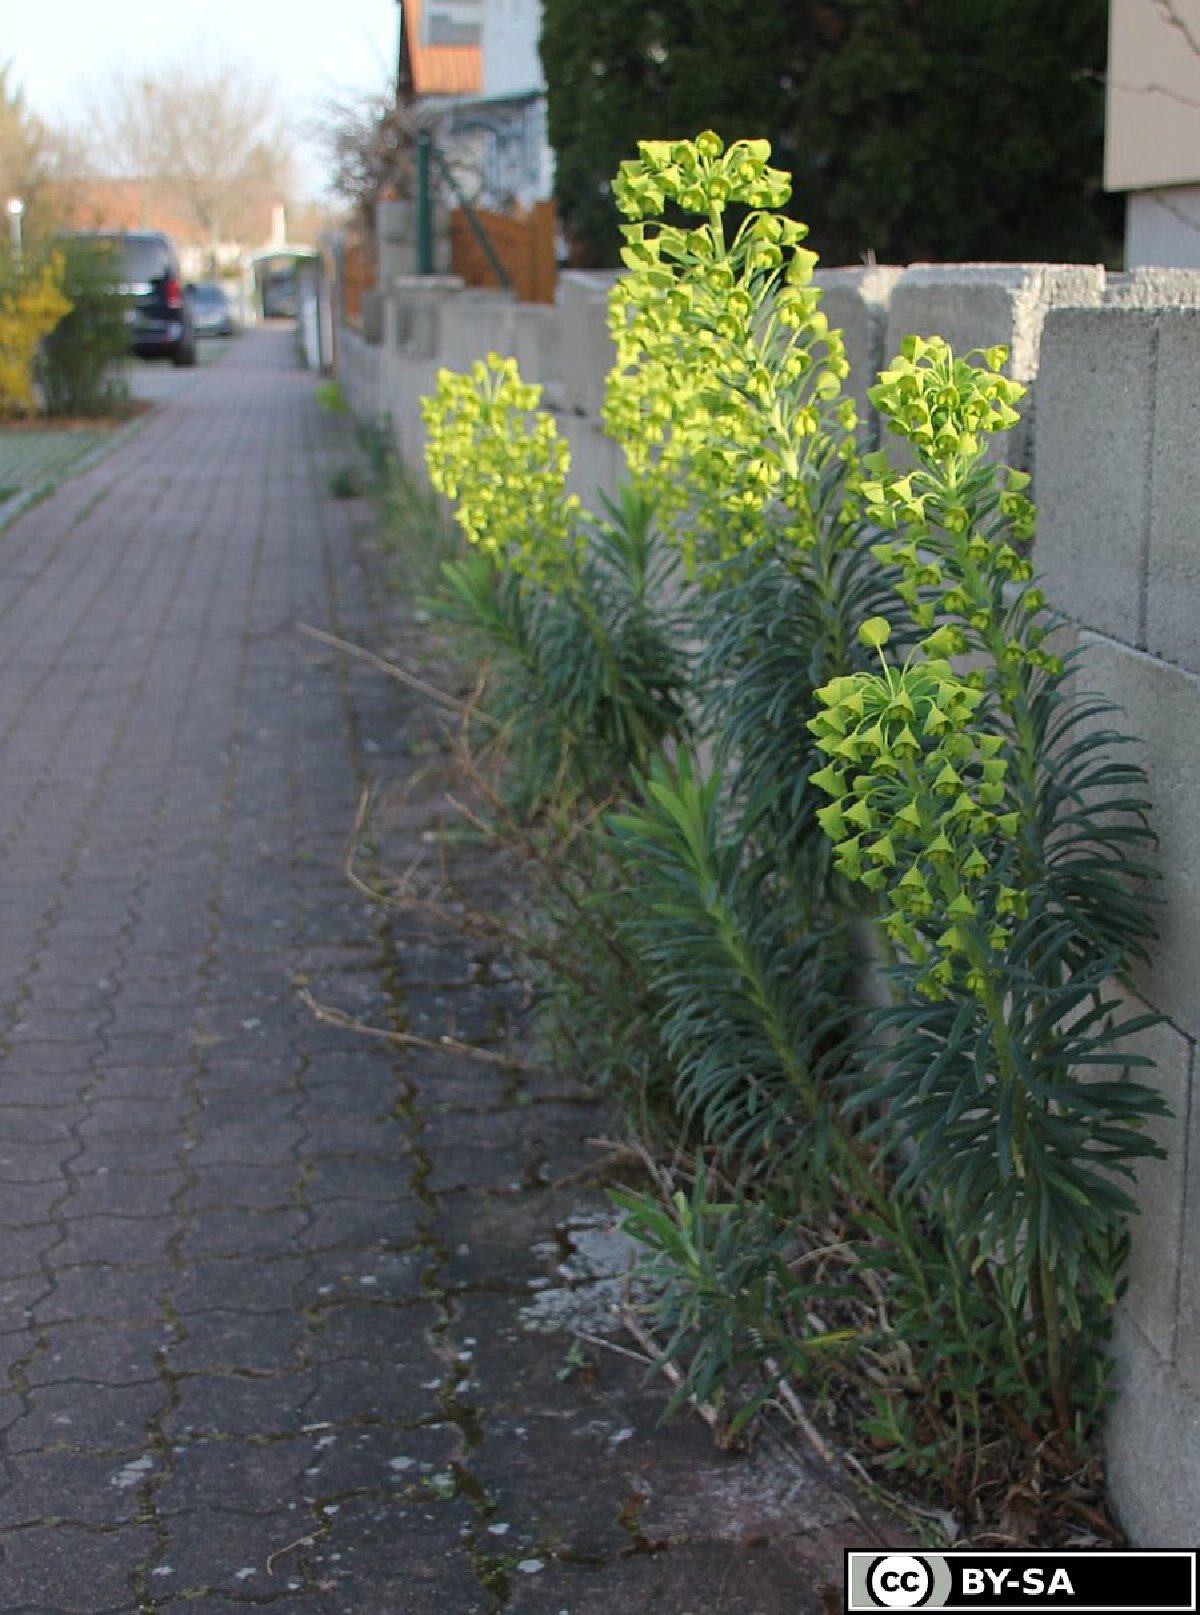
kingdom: Plantae
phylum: Tracheophyta
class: Magnoliopsida
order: Malpighiales
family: Euphorbiaceae
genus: Euphorbia
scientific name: Euphorbia characias
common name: Mediterranean spurge
